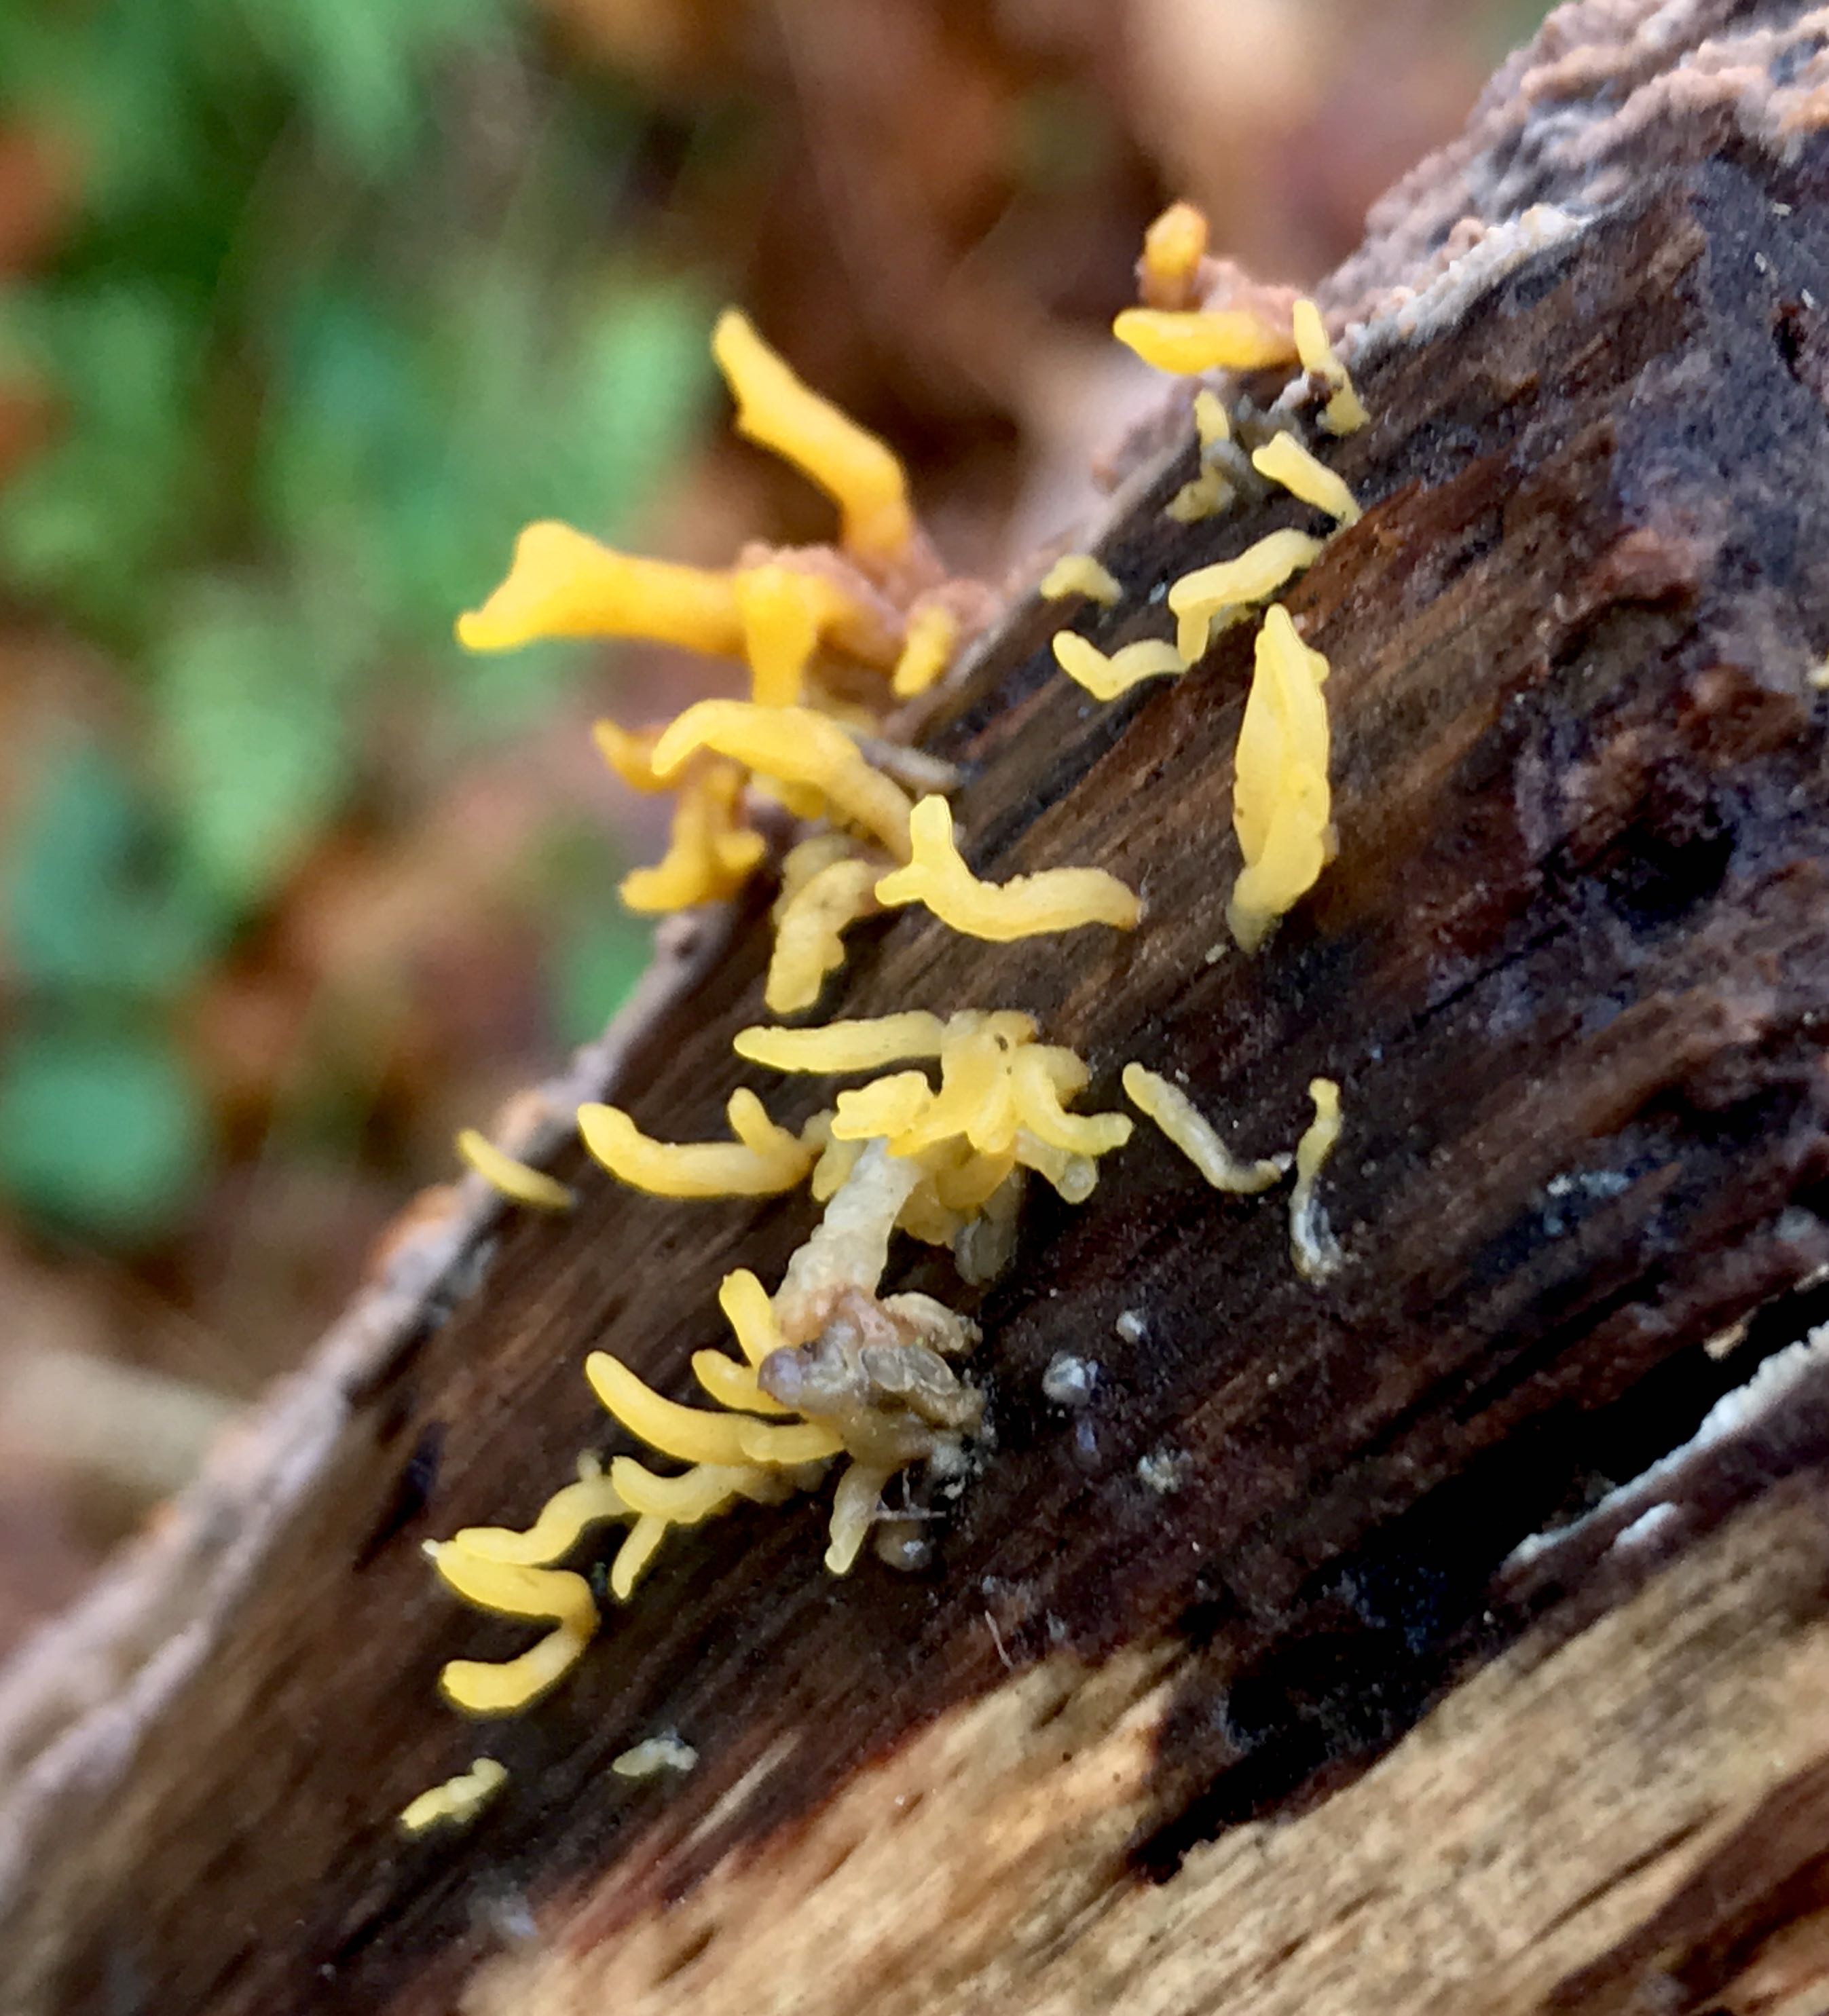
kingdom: Fungi
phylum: Basidiomycota
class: Dacrymycetes
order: Dacrymycetales
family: Dacrymycetaceae
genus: Calocera
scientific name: Calocera cornea
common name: liden guldgaffel
